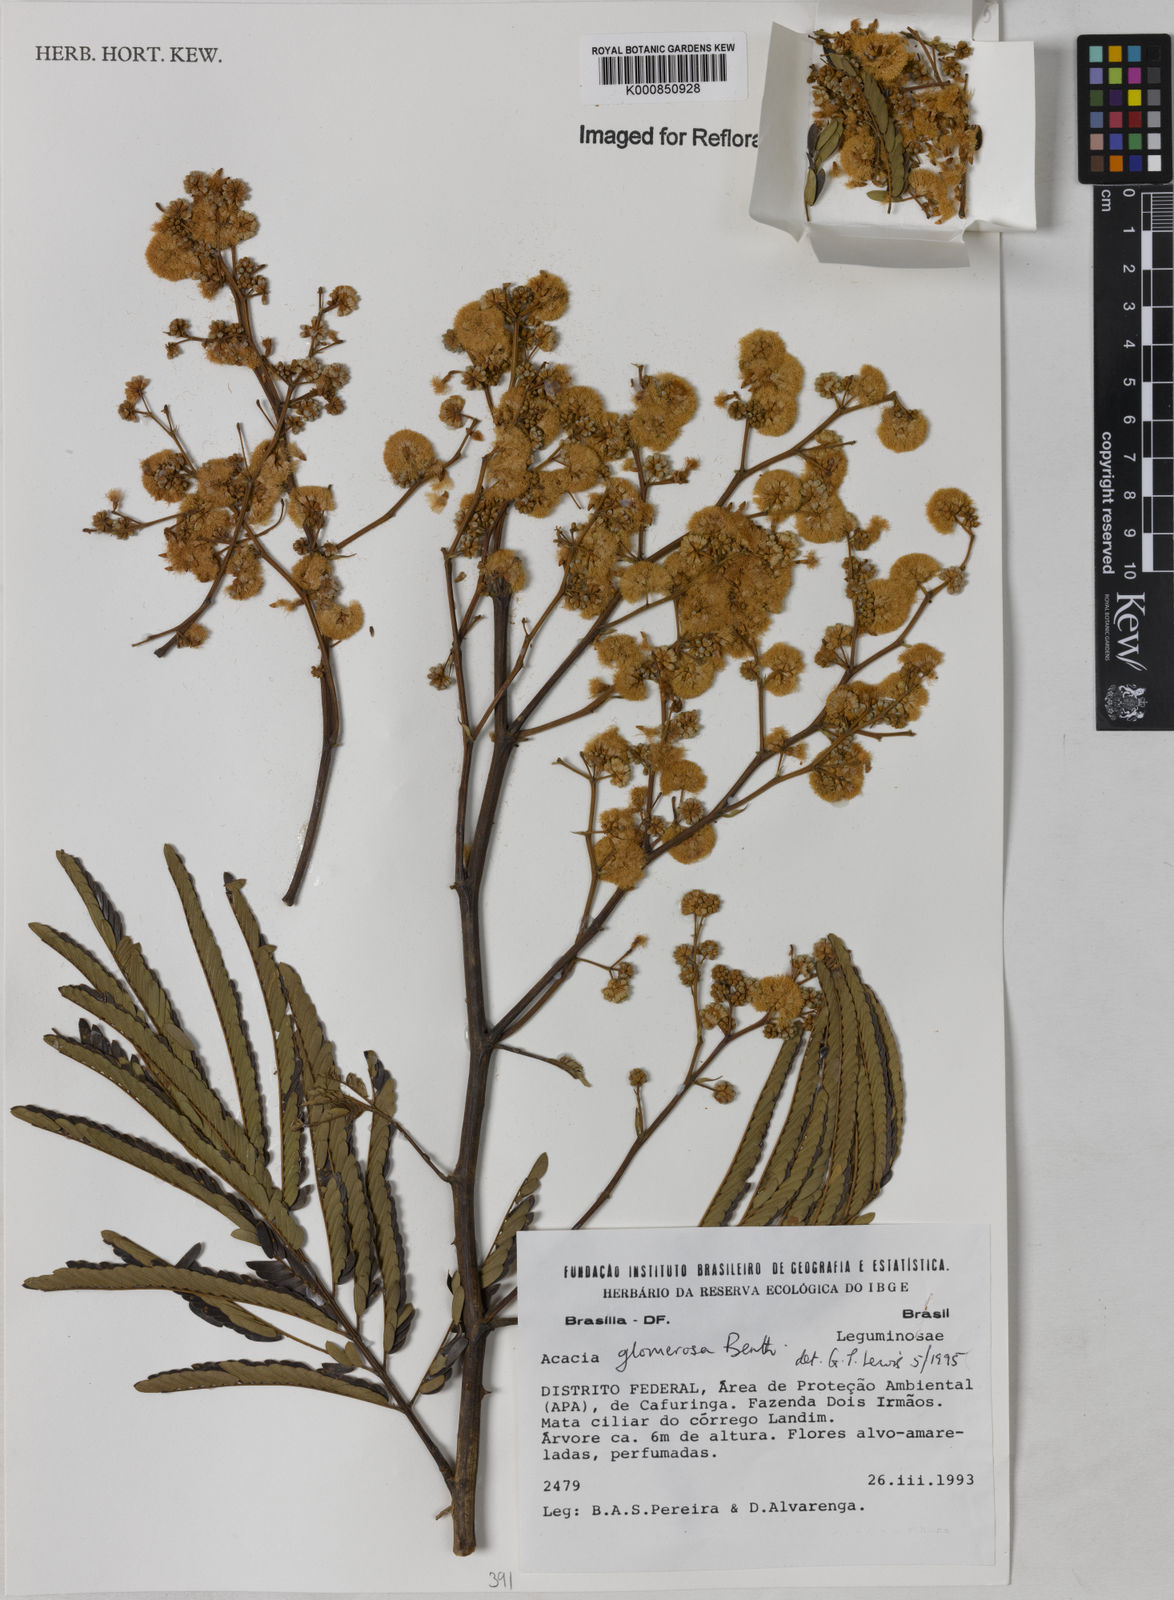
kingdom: Plantae
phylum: Tracheophyta
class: Magnoliopsida
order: Fabales
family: Fabaceae
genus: Senegalia
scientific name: Senegalia polyphylla
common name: White-tamarind
